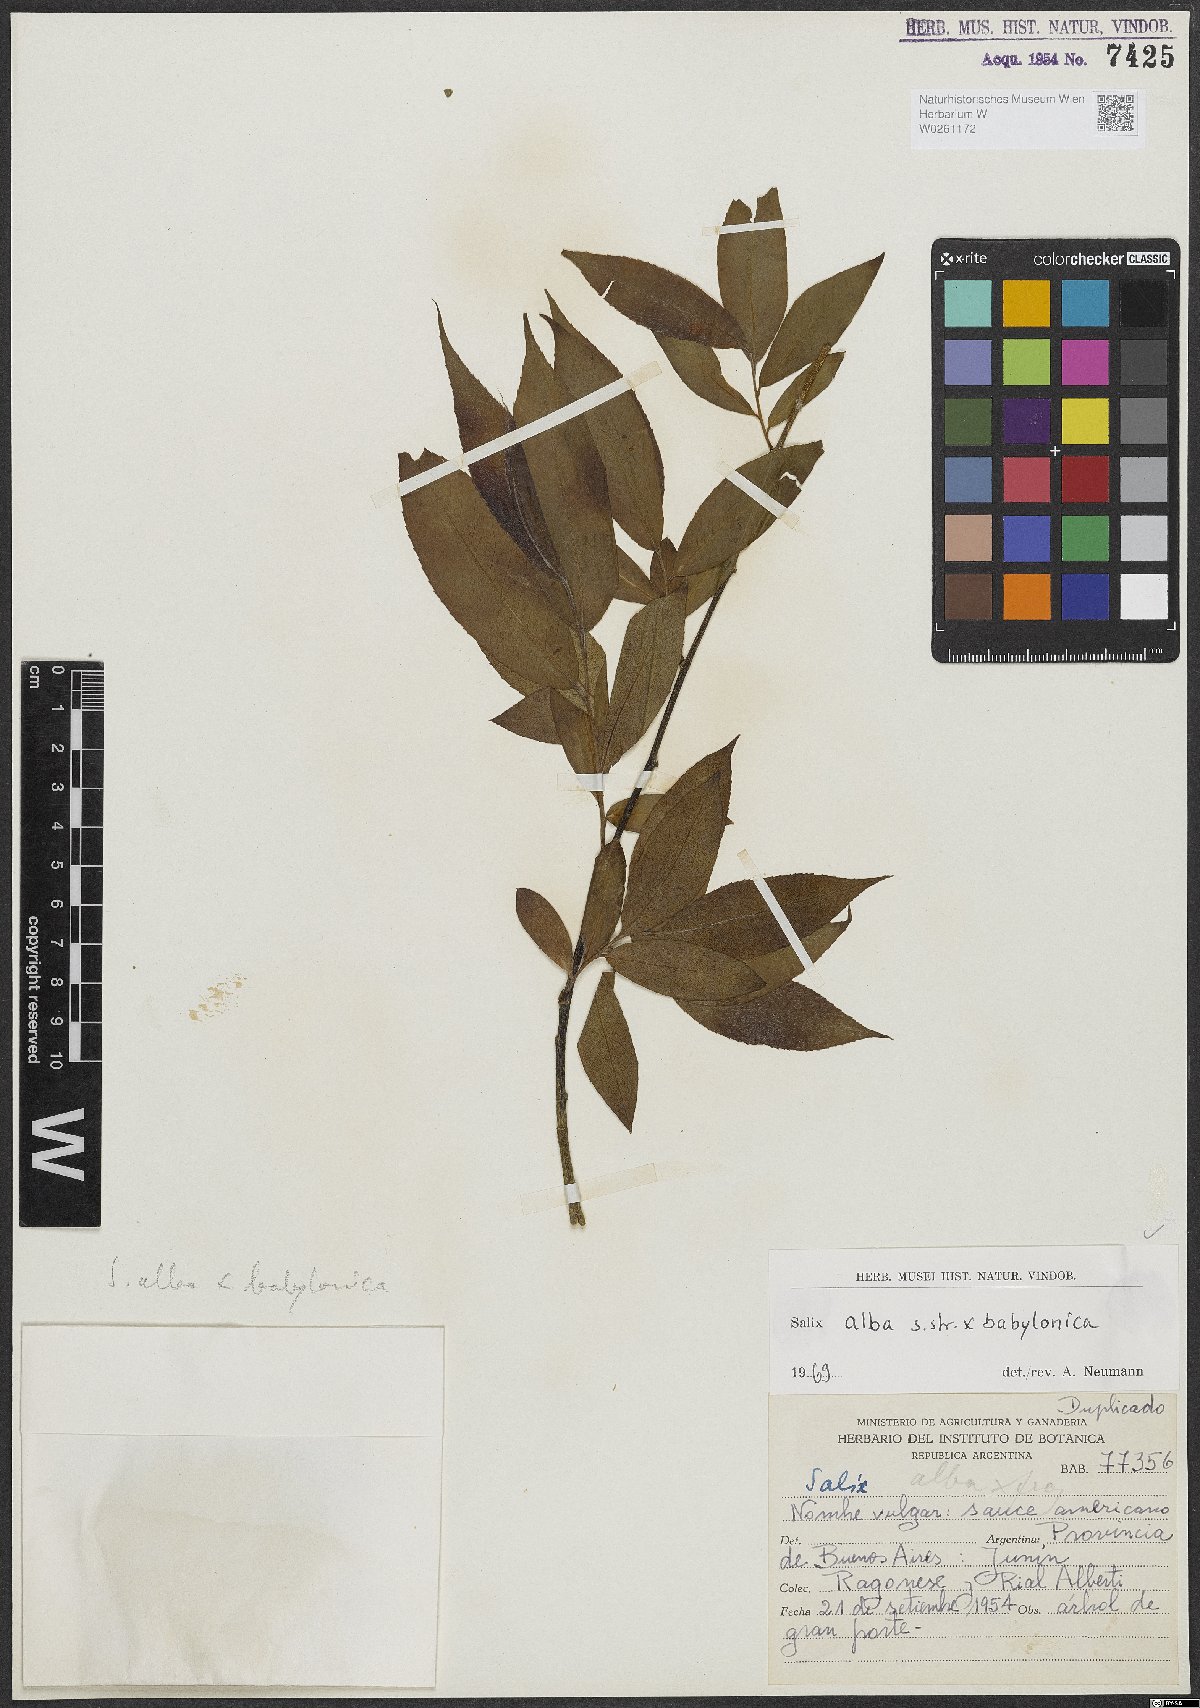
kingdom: Plantae
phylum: Tracheophyta
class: Magnoliopsida
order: Malpighiales
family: Salicaceae
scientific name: Salicaceae
